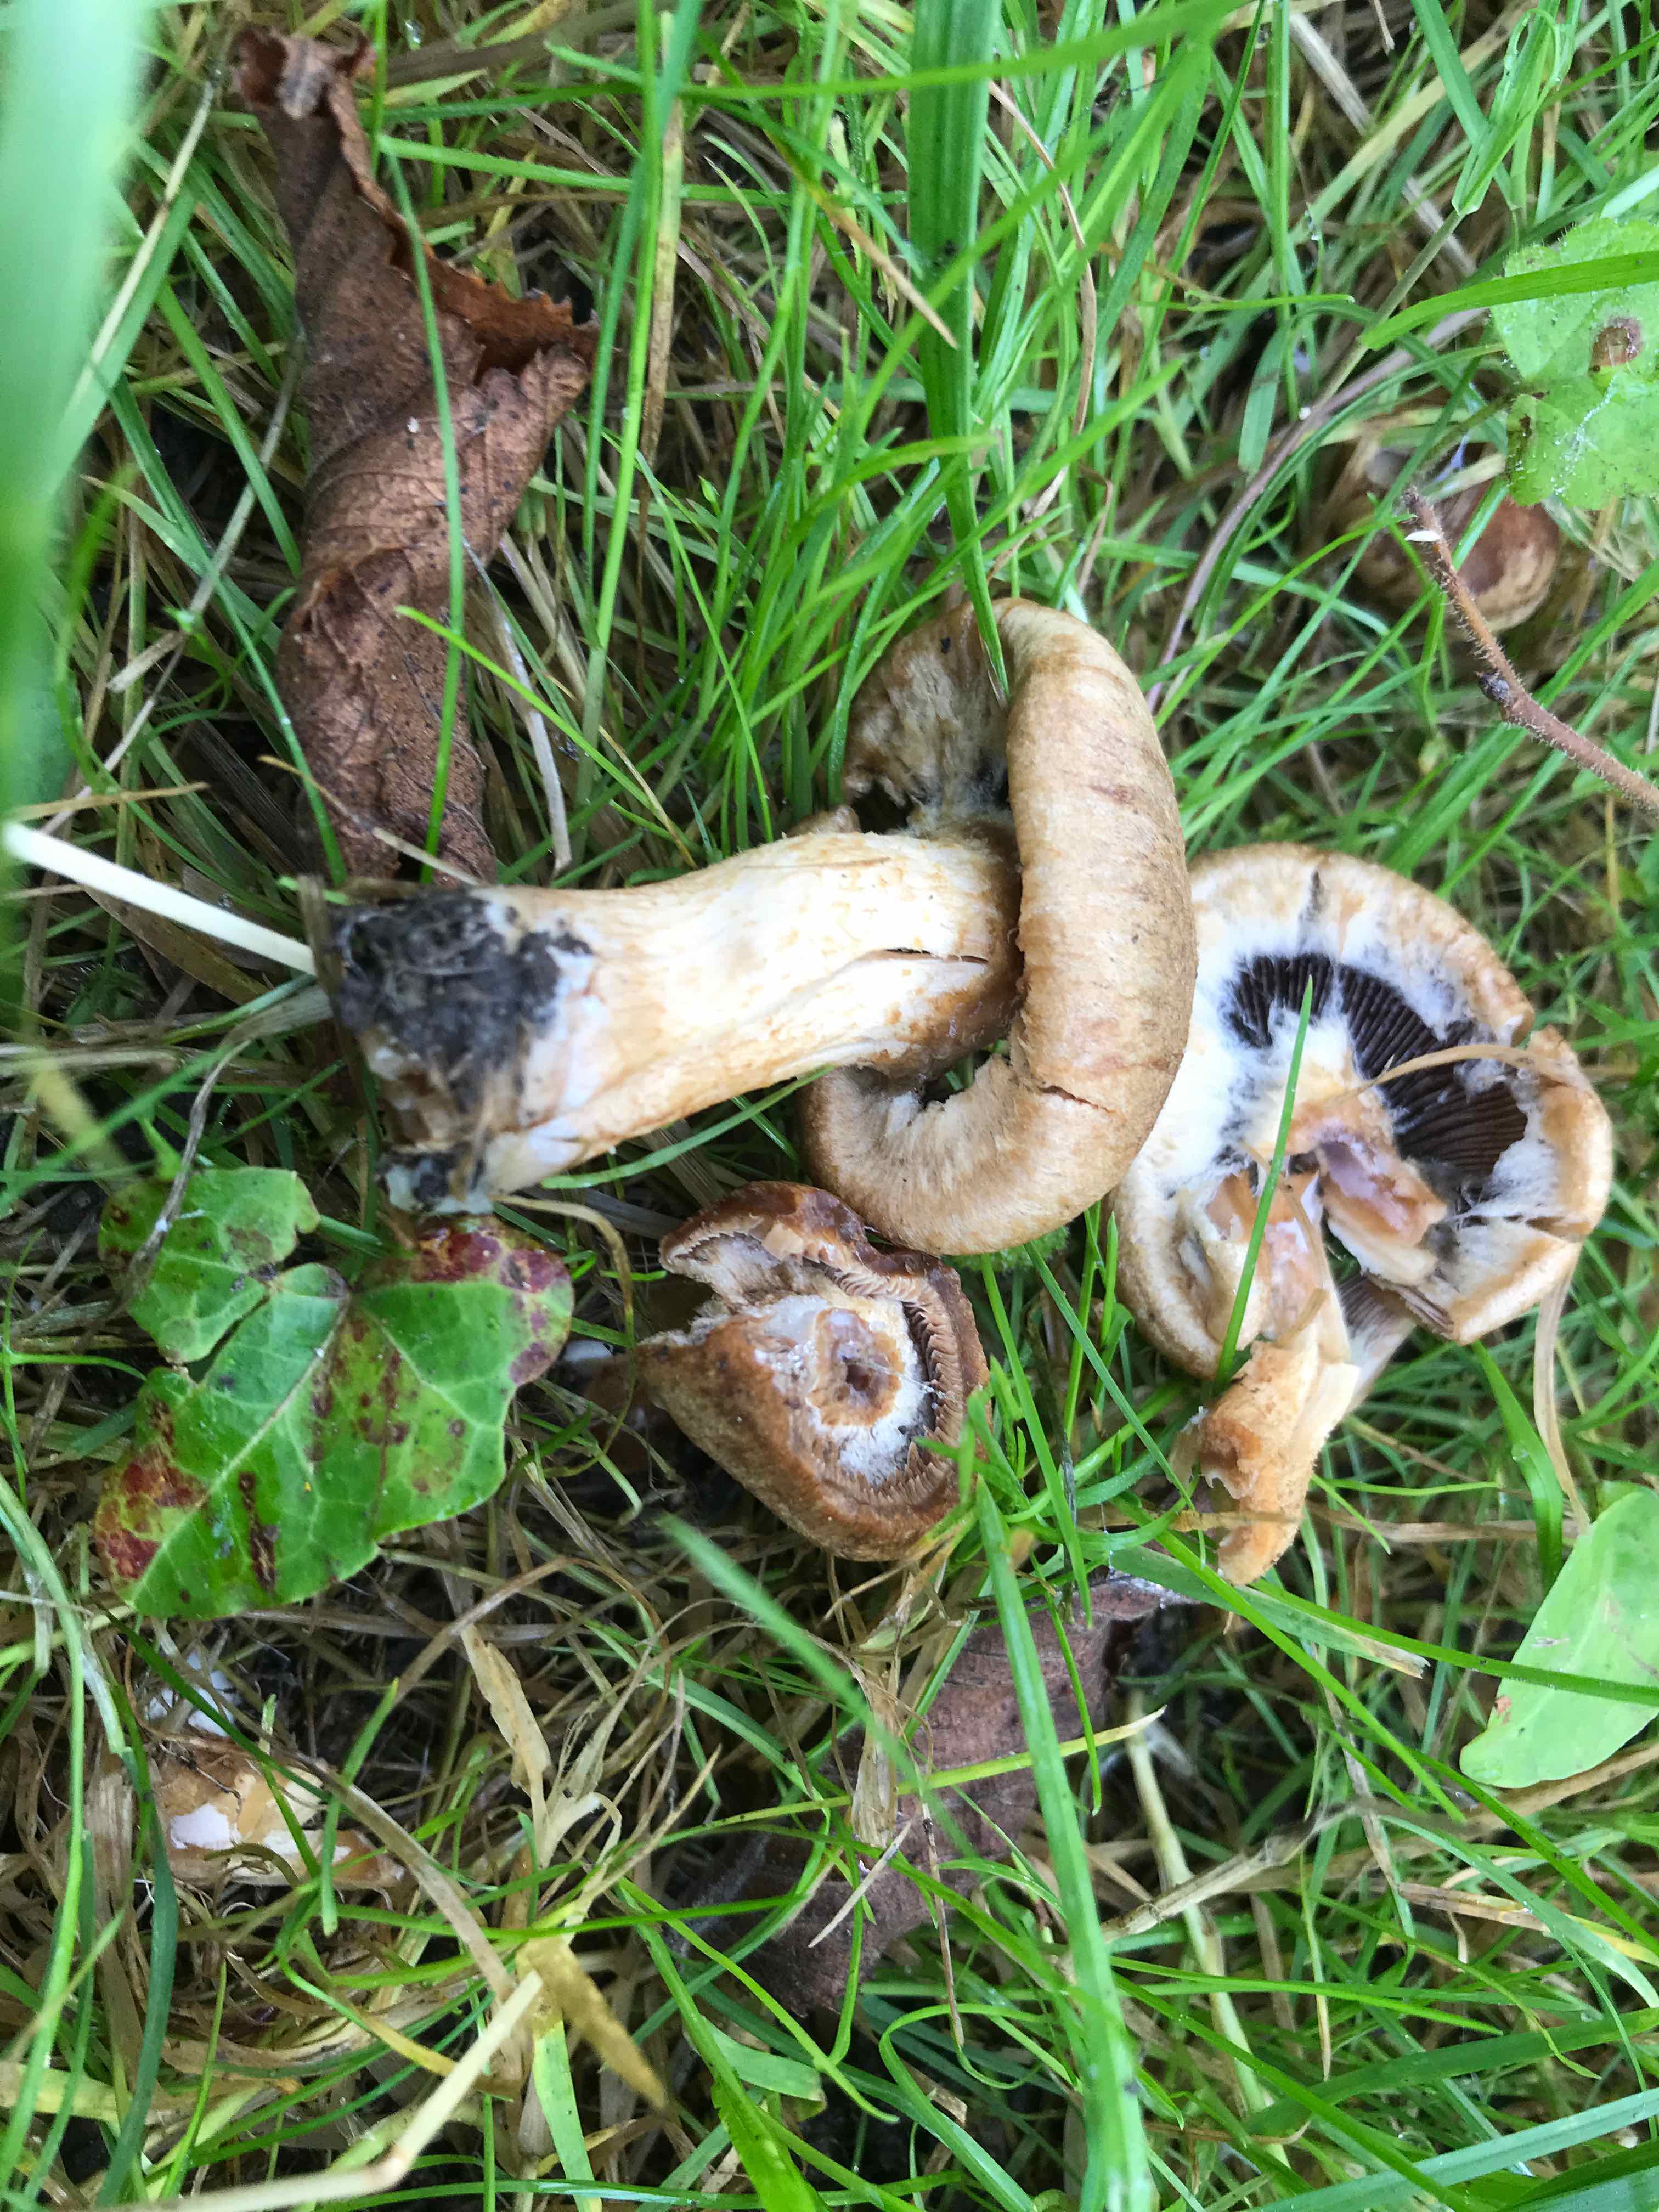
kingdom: Fungi
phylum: Basidiomycota
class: Agaricomycetes
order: Agaricales
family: Psathyrellaceae
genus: Lacrymaria
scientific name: Lacrymaria lacrymabunda
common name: grædende mørkhat
